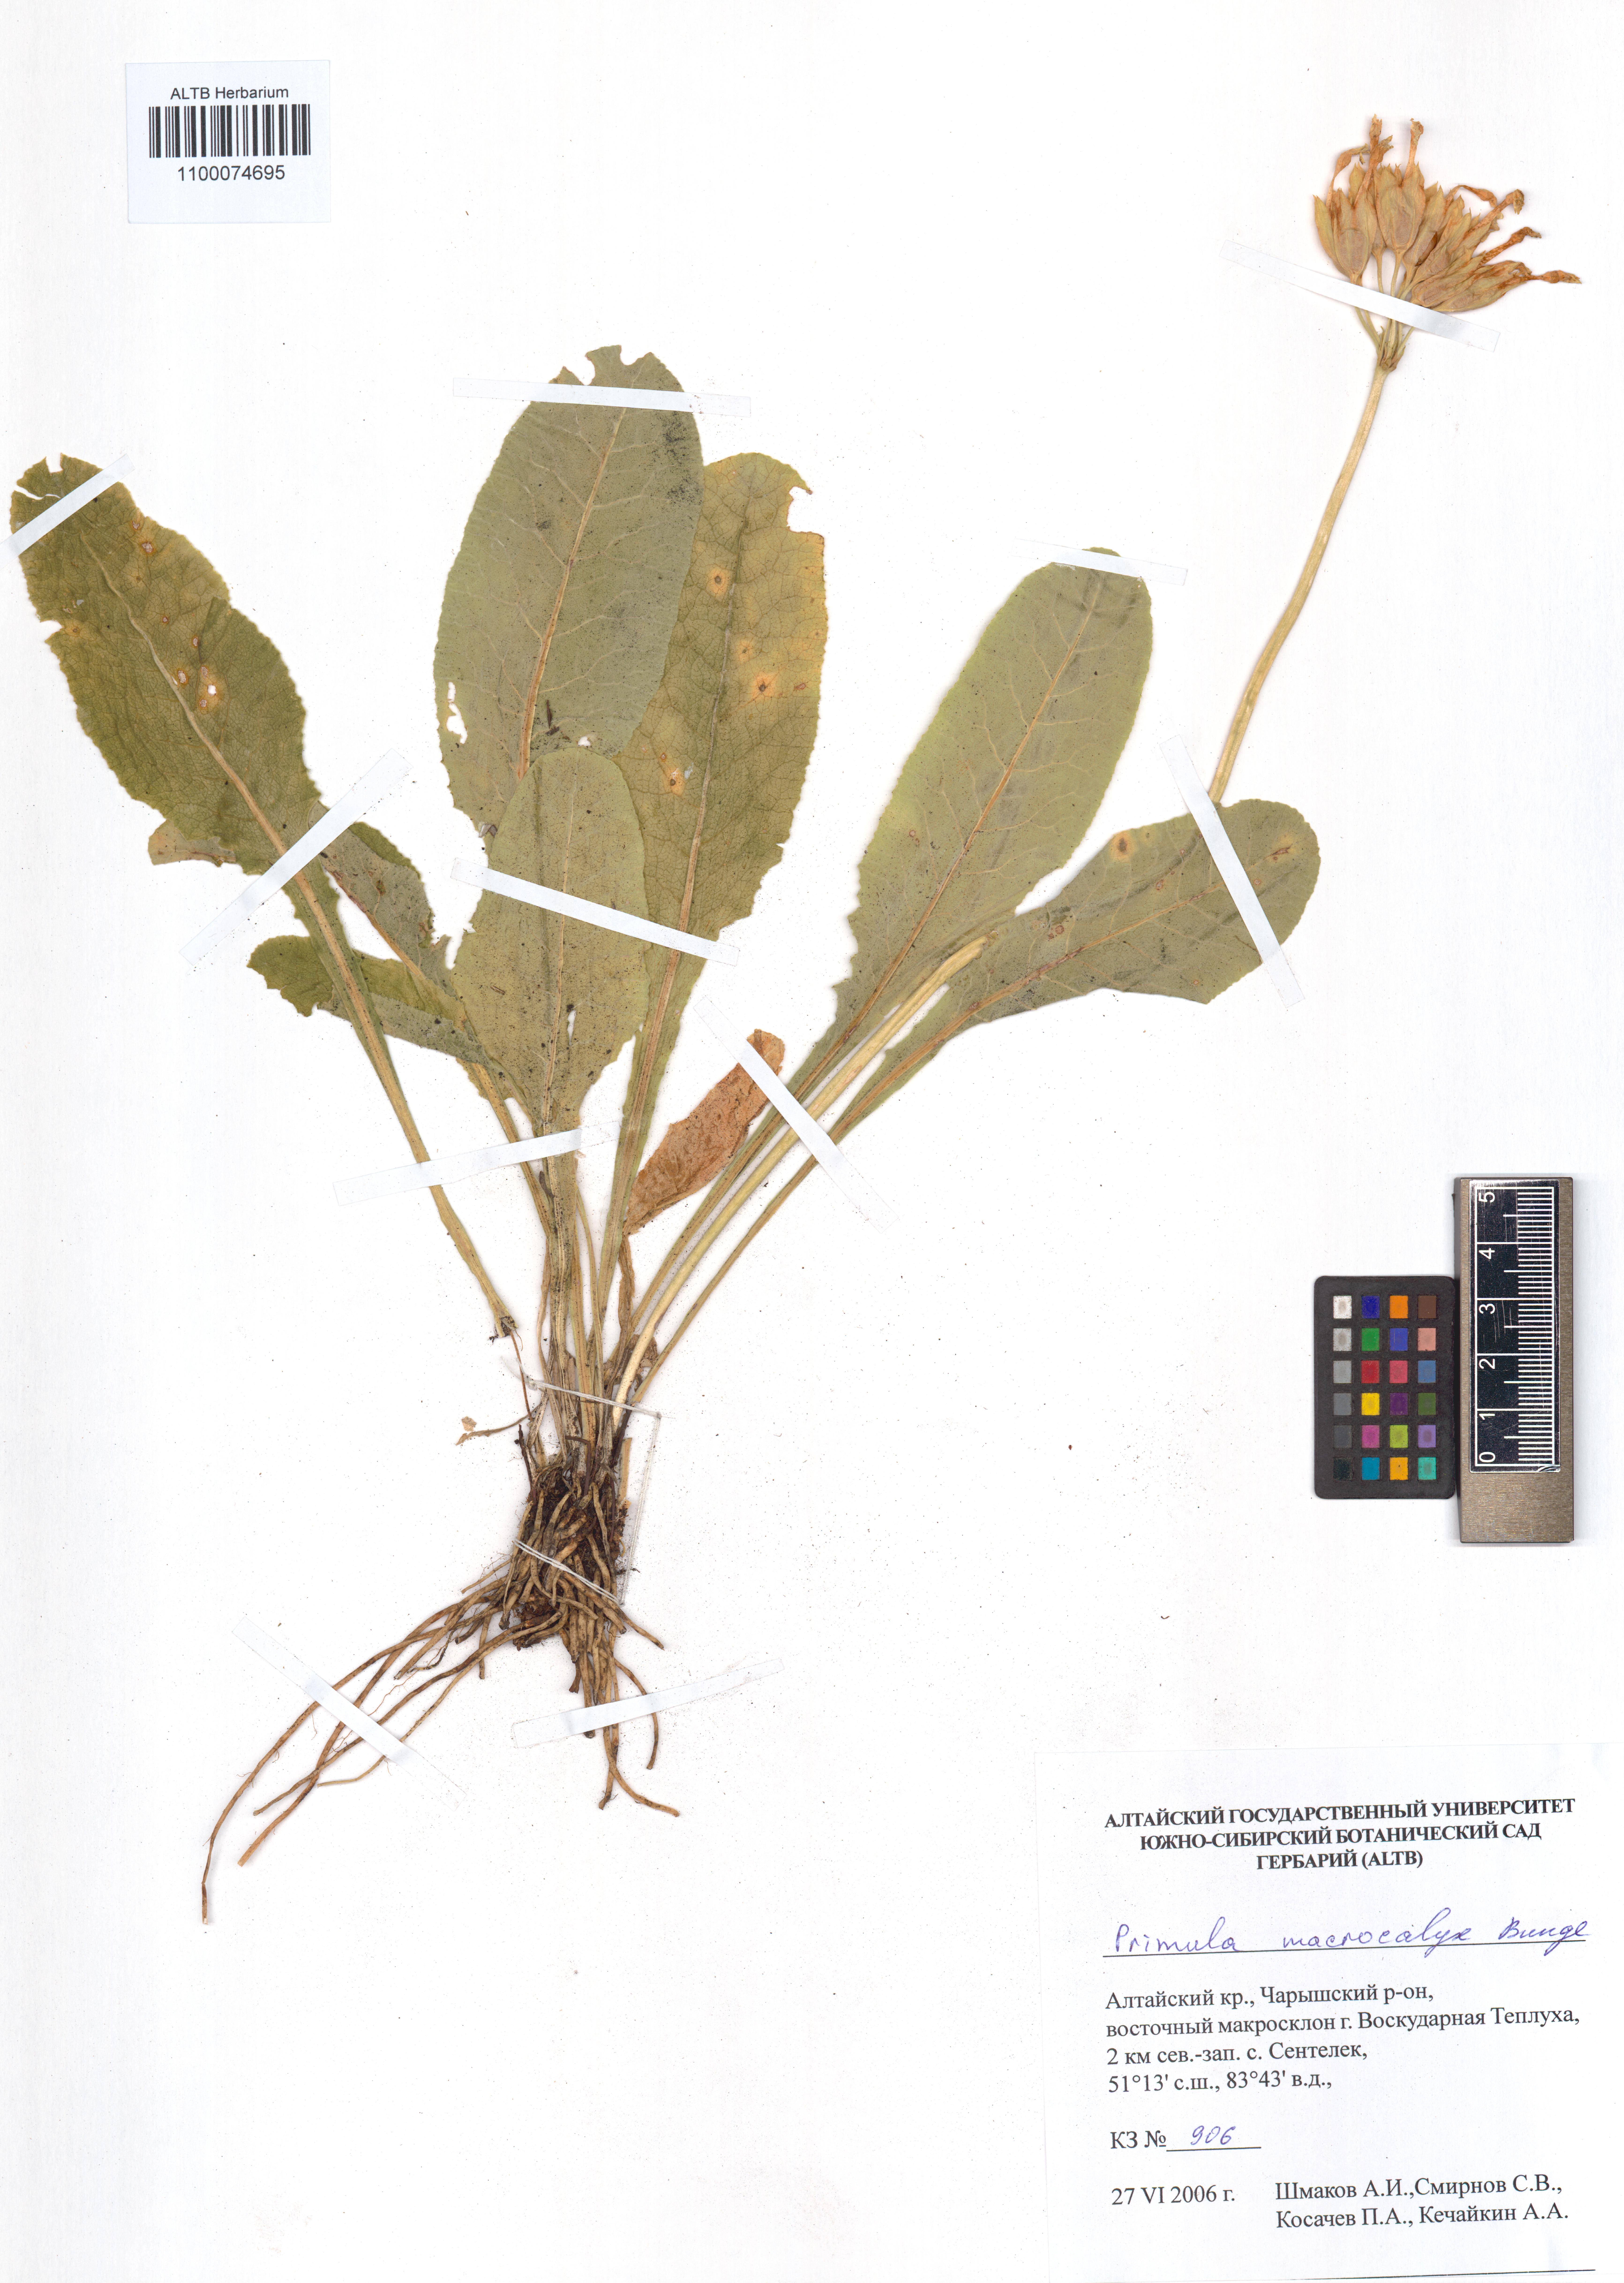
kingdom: Plantae
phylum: Tracheophyta
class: Magnoliopsida
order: Ericales
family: Primulaceae
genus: Primula
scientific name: Primula veris
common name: Cowslip
